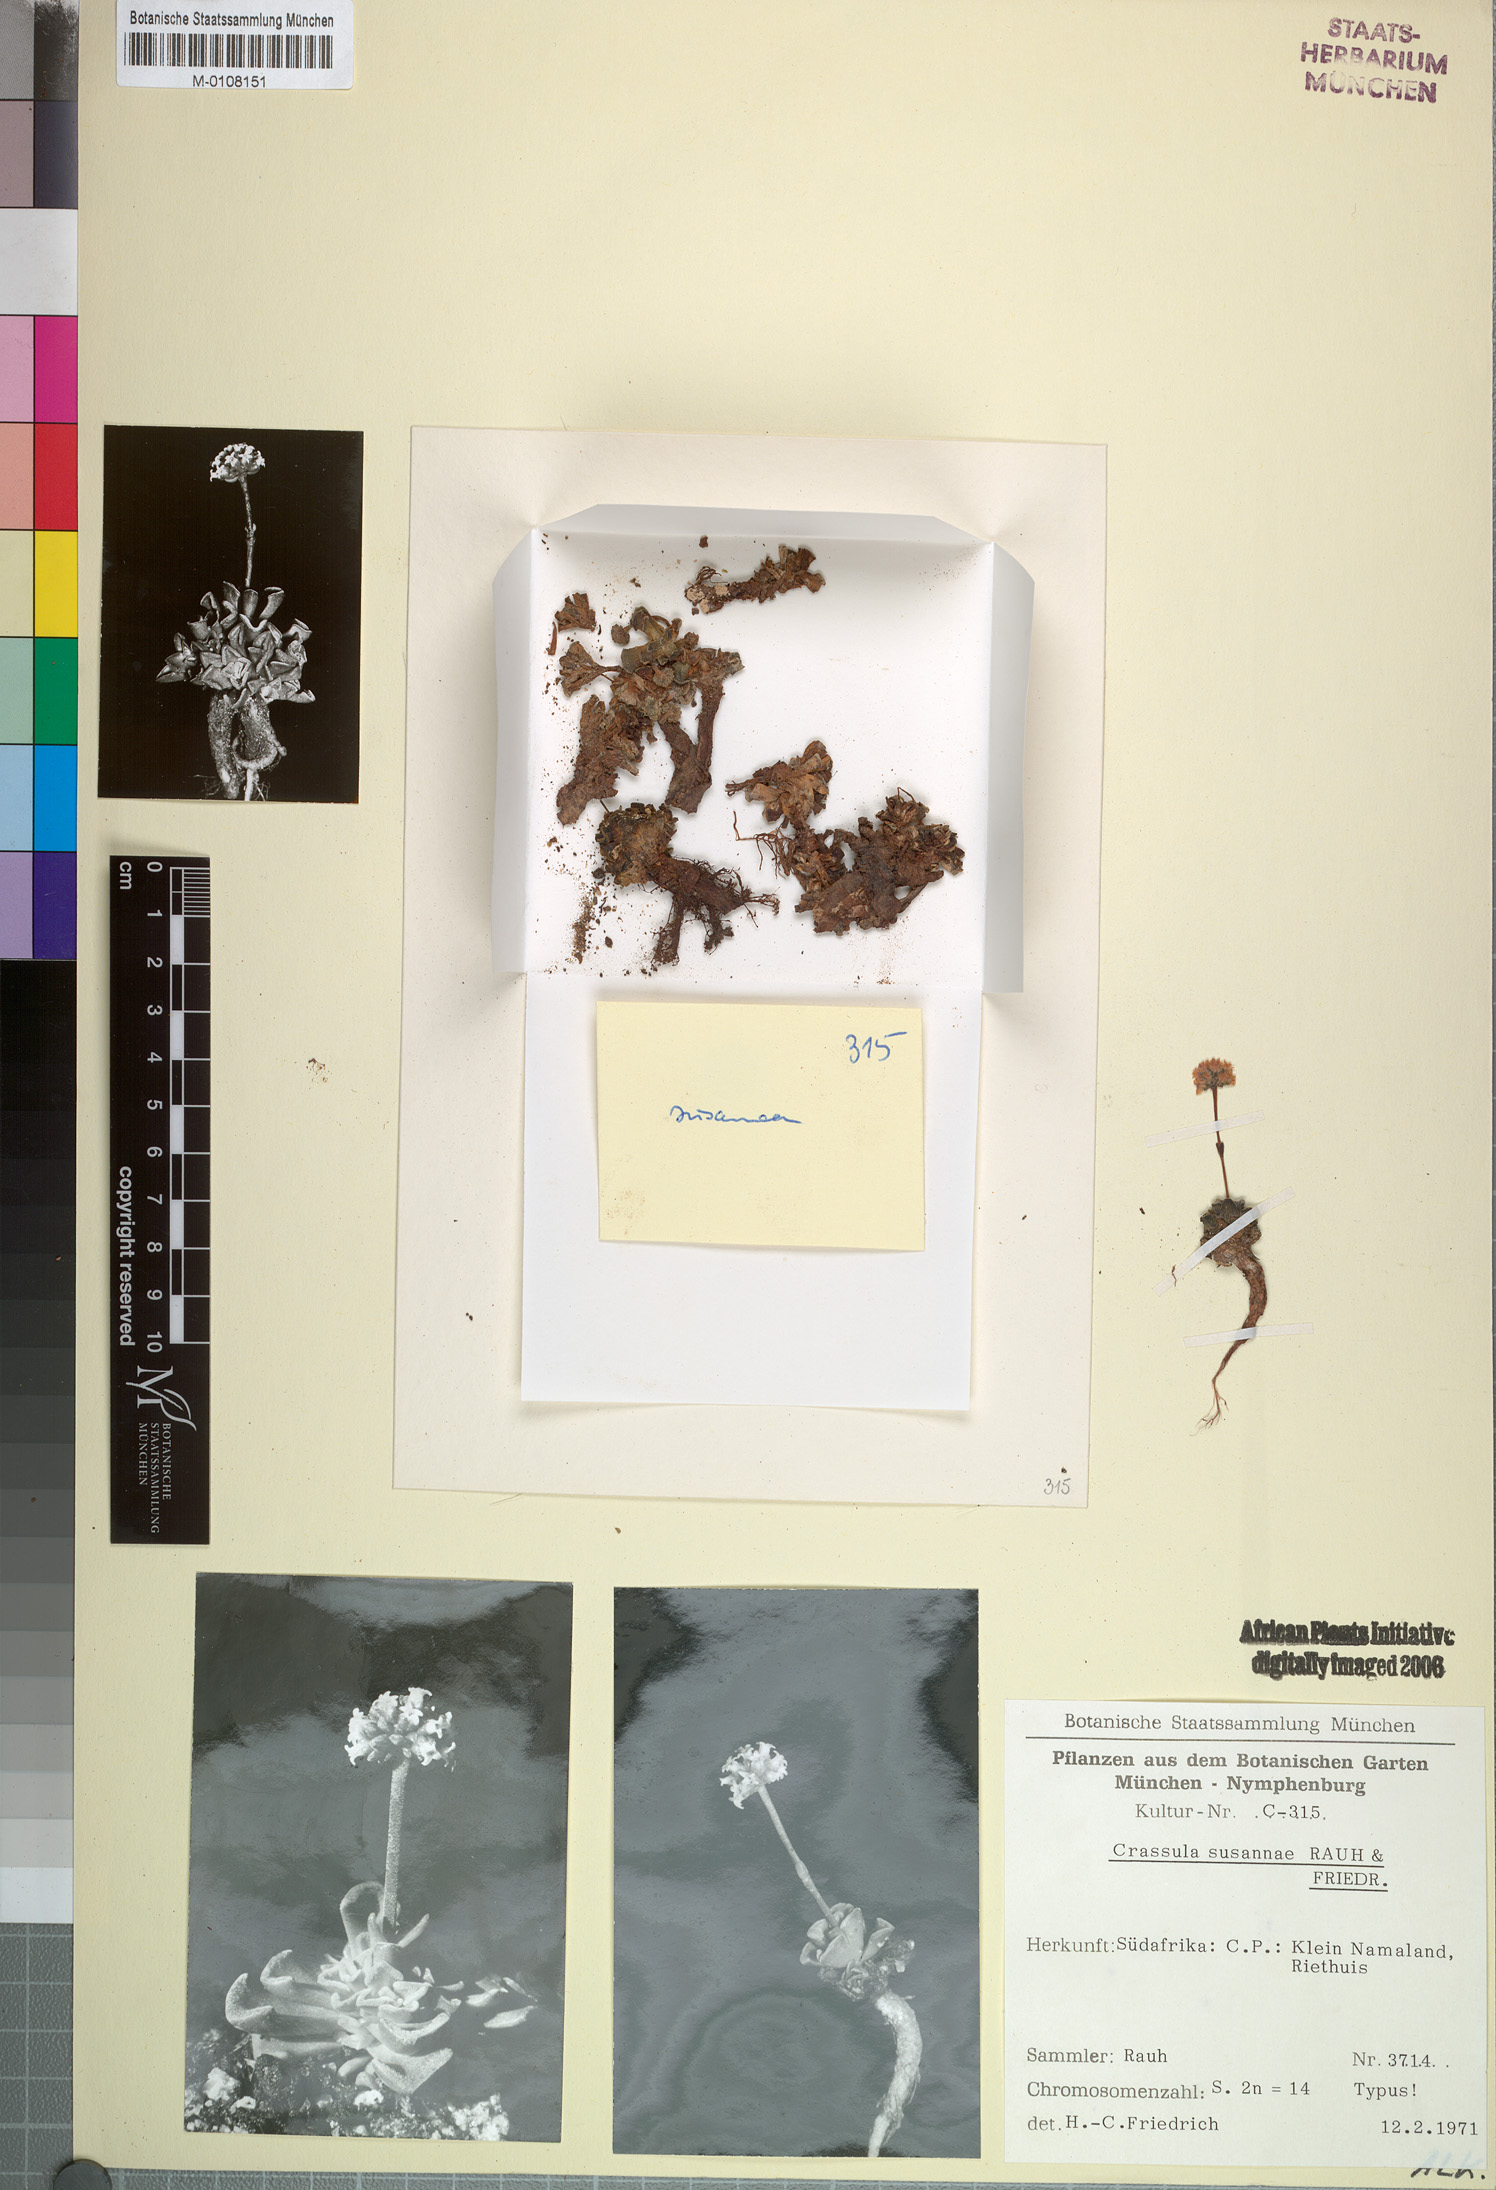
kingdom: Plantae
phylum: Tracheophyta
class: Magnoliopsida
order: Saxifragales
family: Crassulaceae
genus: Crassula
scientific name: Crassula susannae
